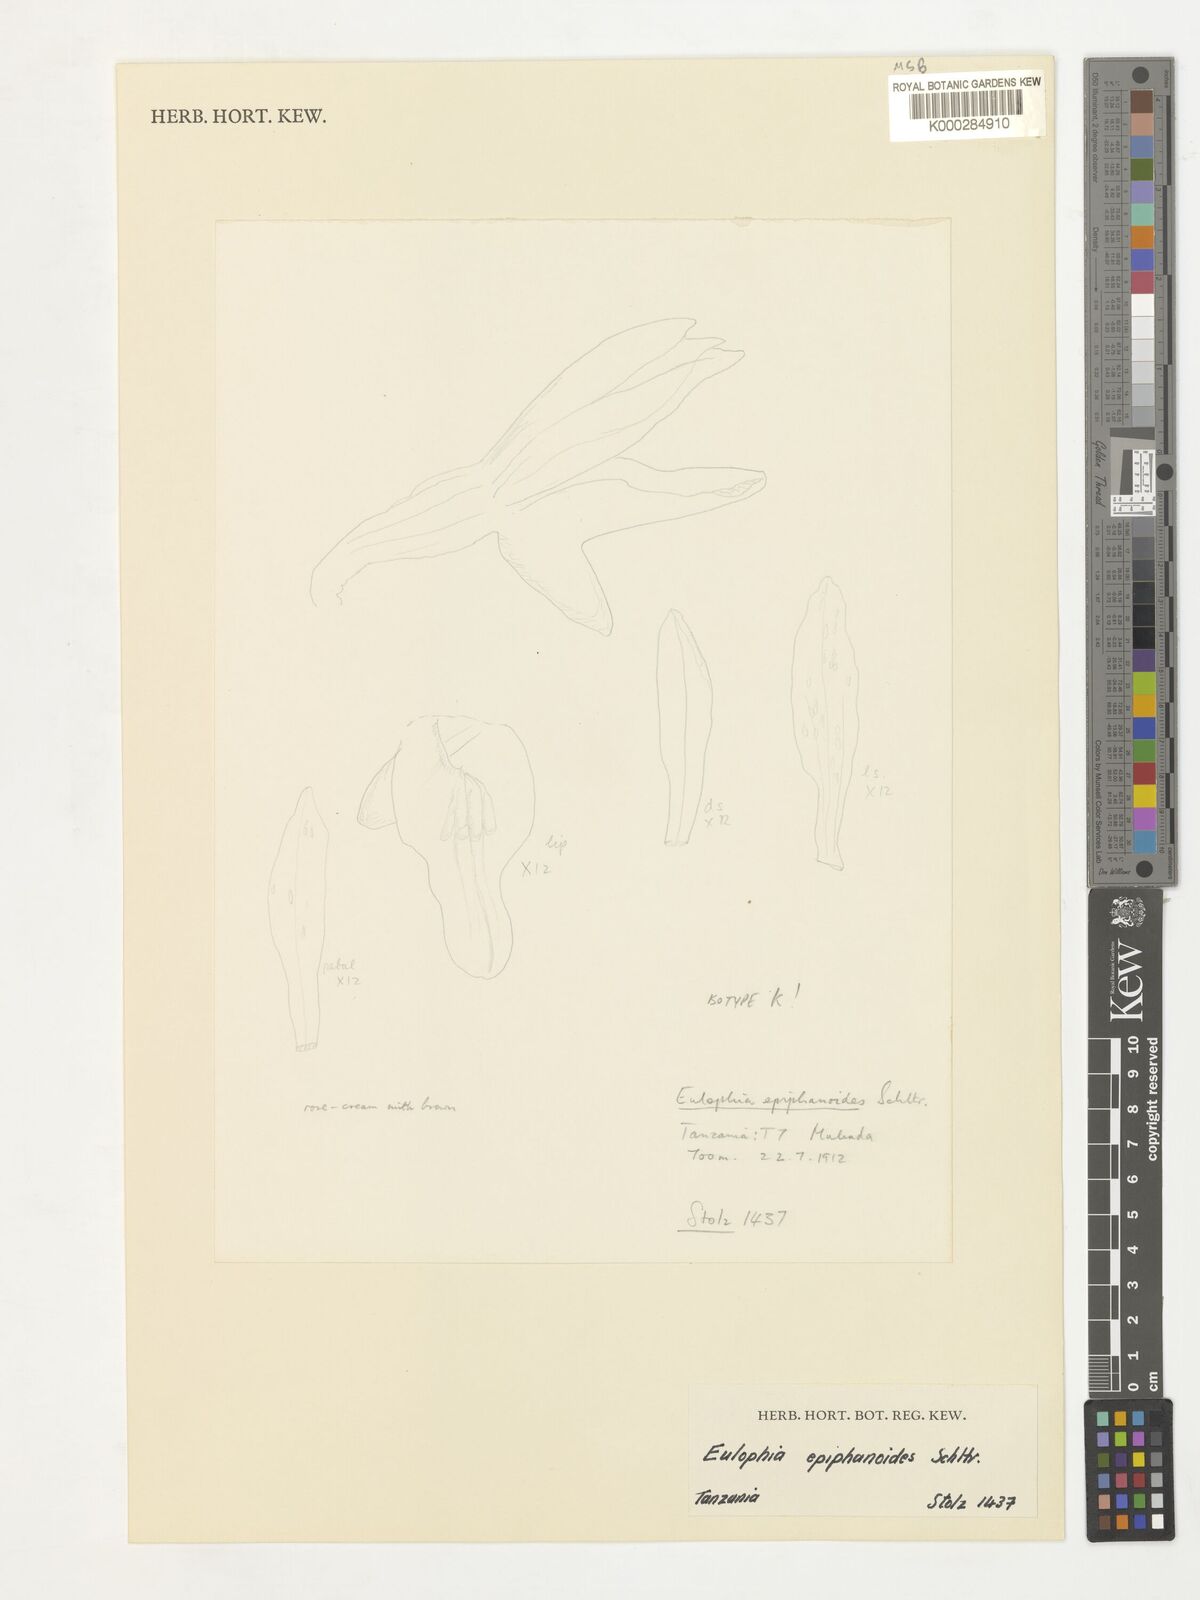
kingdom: Plantae
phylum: Tracheophyta
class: Liliopsida
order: Asparagales
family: Orchidaceae
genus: Eulophia
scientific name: Eulophia epiphanoides
